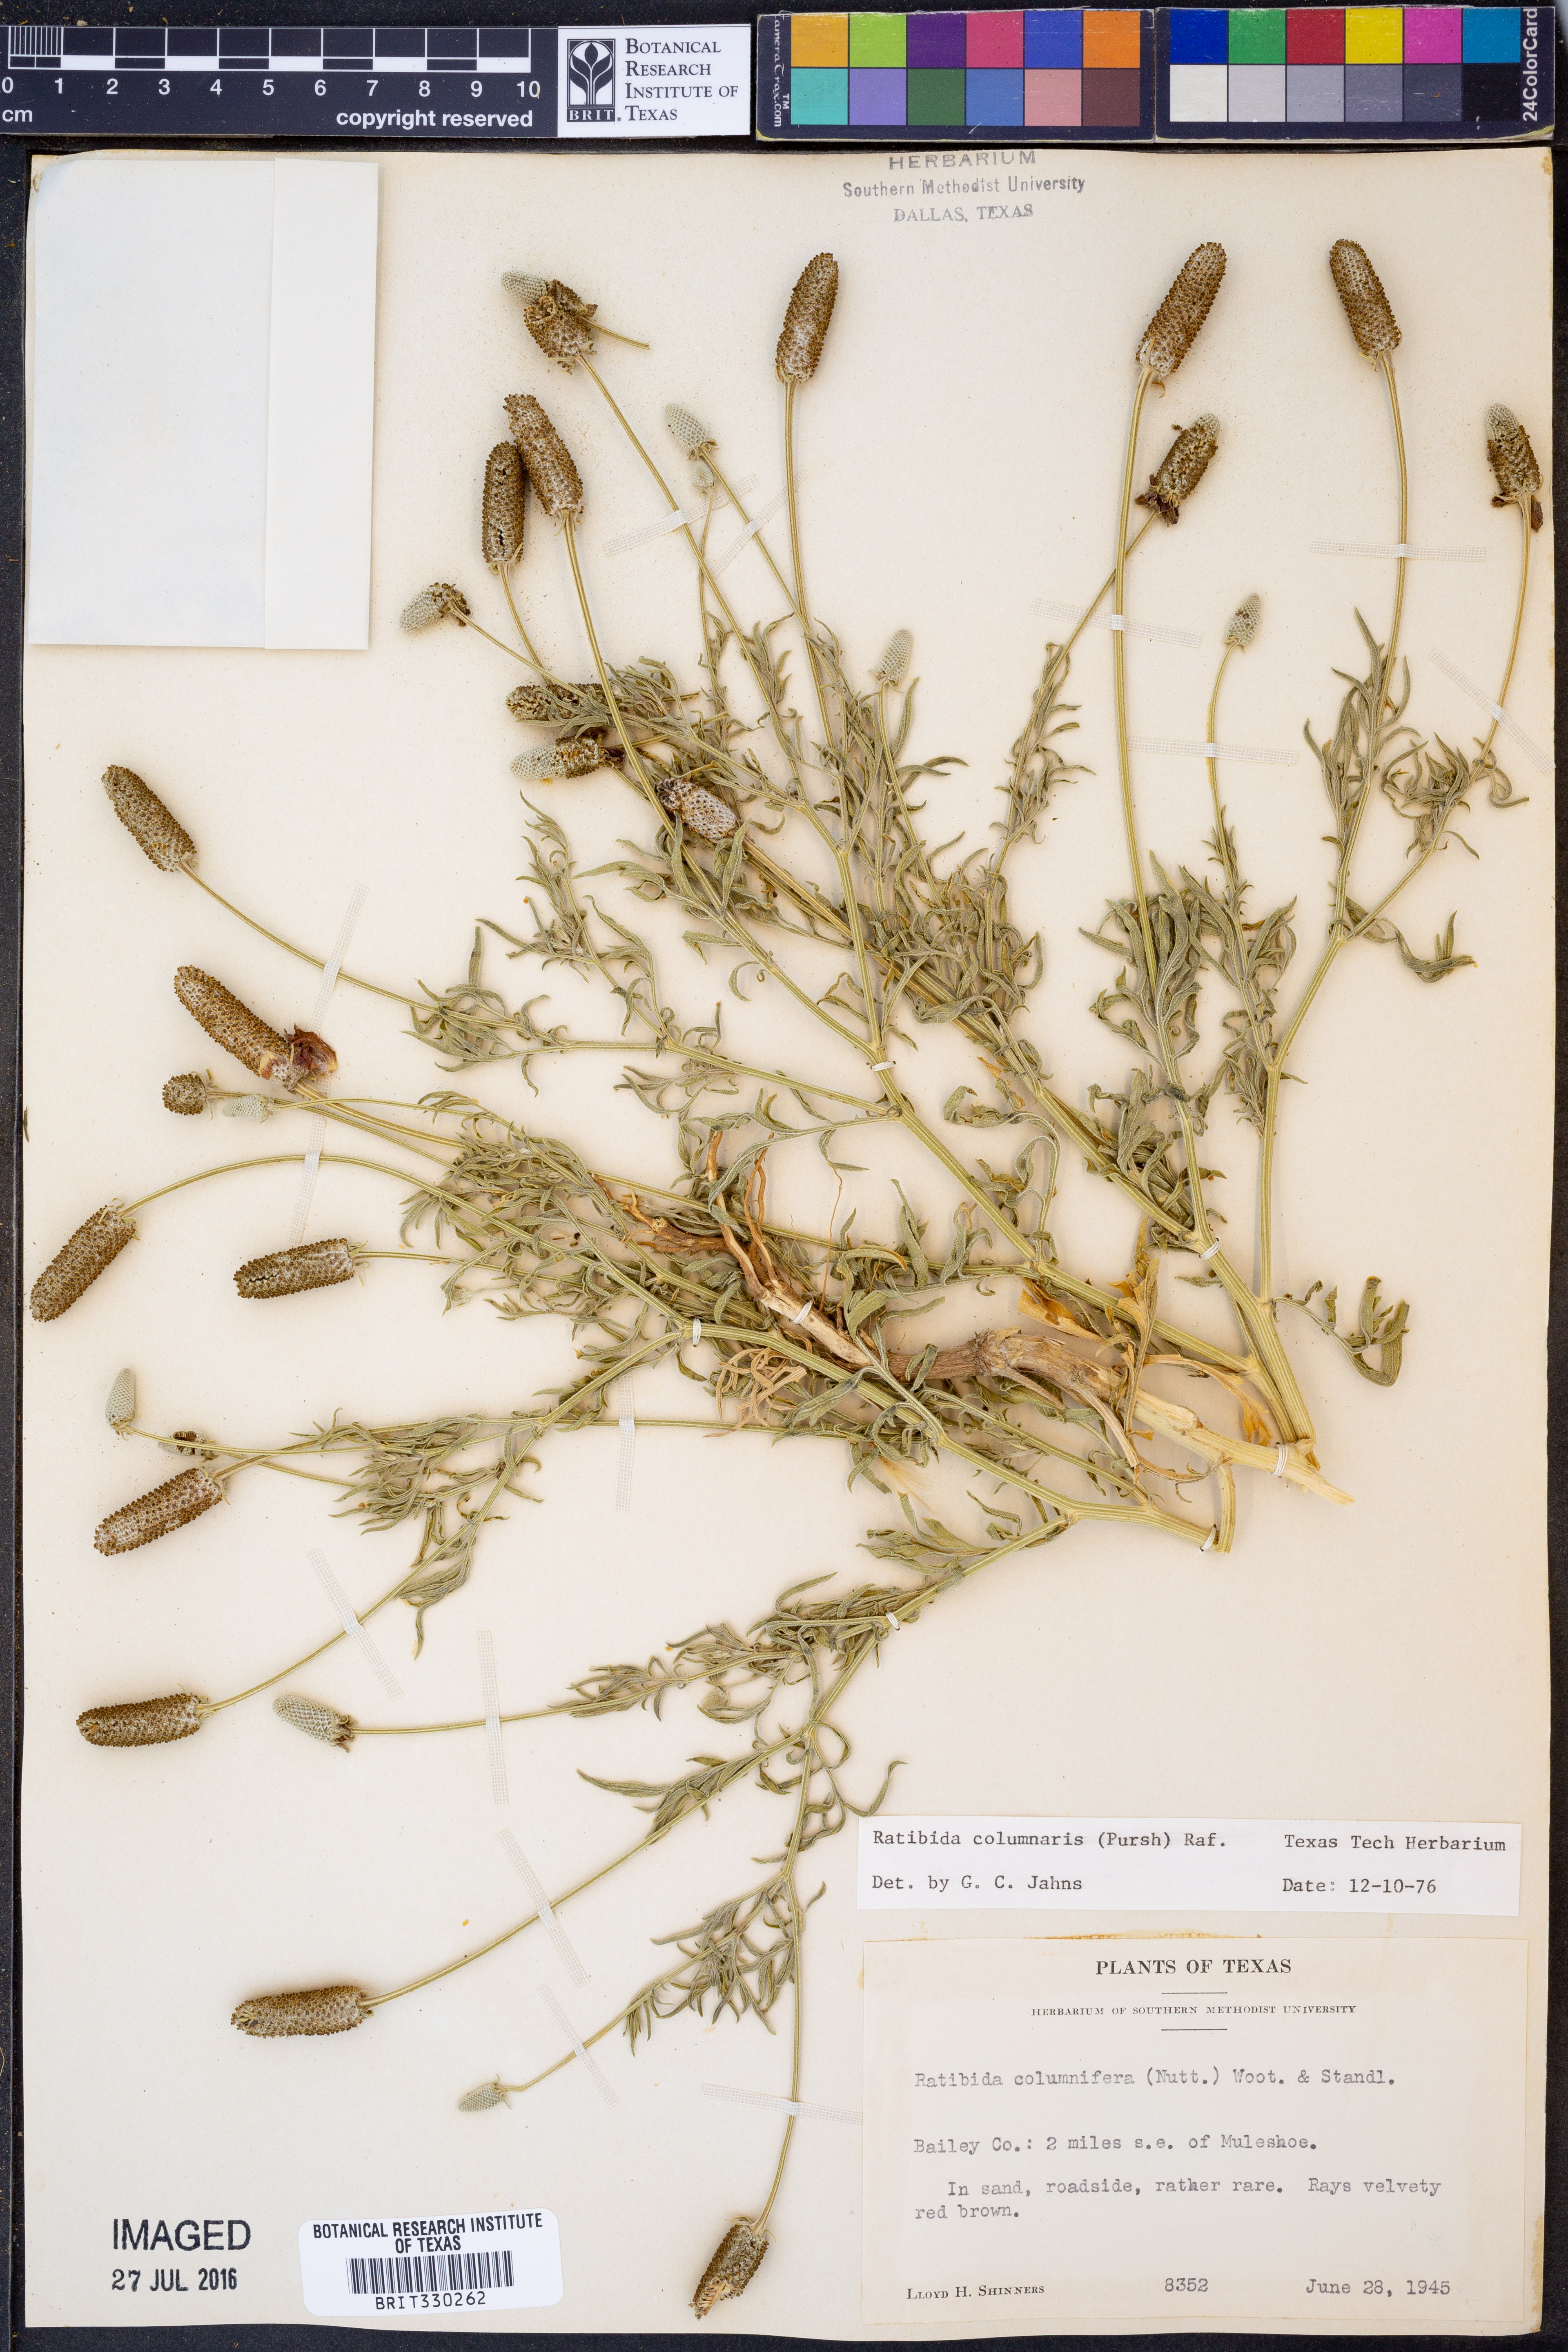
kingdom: Plantae
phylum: Tracheophyta
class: Magnoliopsida
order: Asterales
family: Asteraceae
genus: Ratibida
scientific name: Ratibida columnifera
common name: Prairie coneflower
